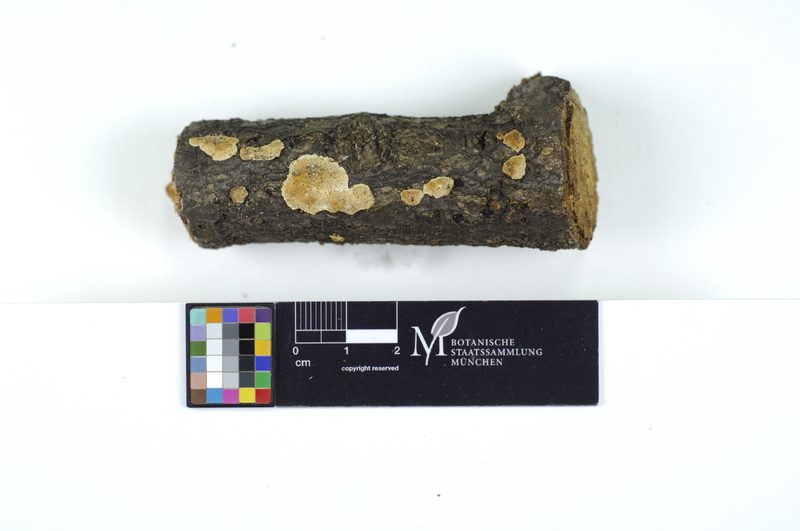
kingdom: Fungi
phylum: Basidiomycota
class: Agaricomycetes
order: Polyporales
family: Steccherinaceae
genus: Antrodiella
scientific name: Antrodiella onychoides
